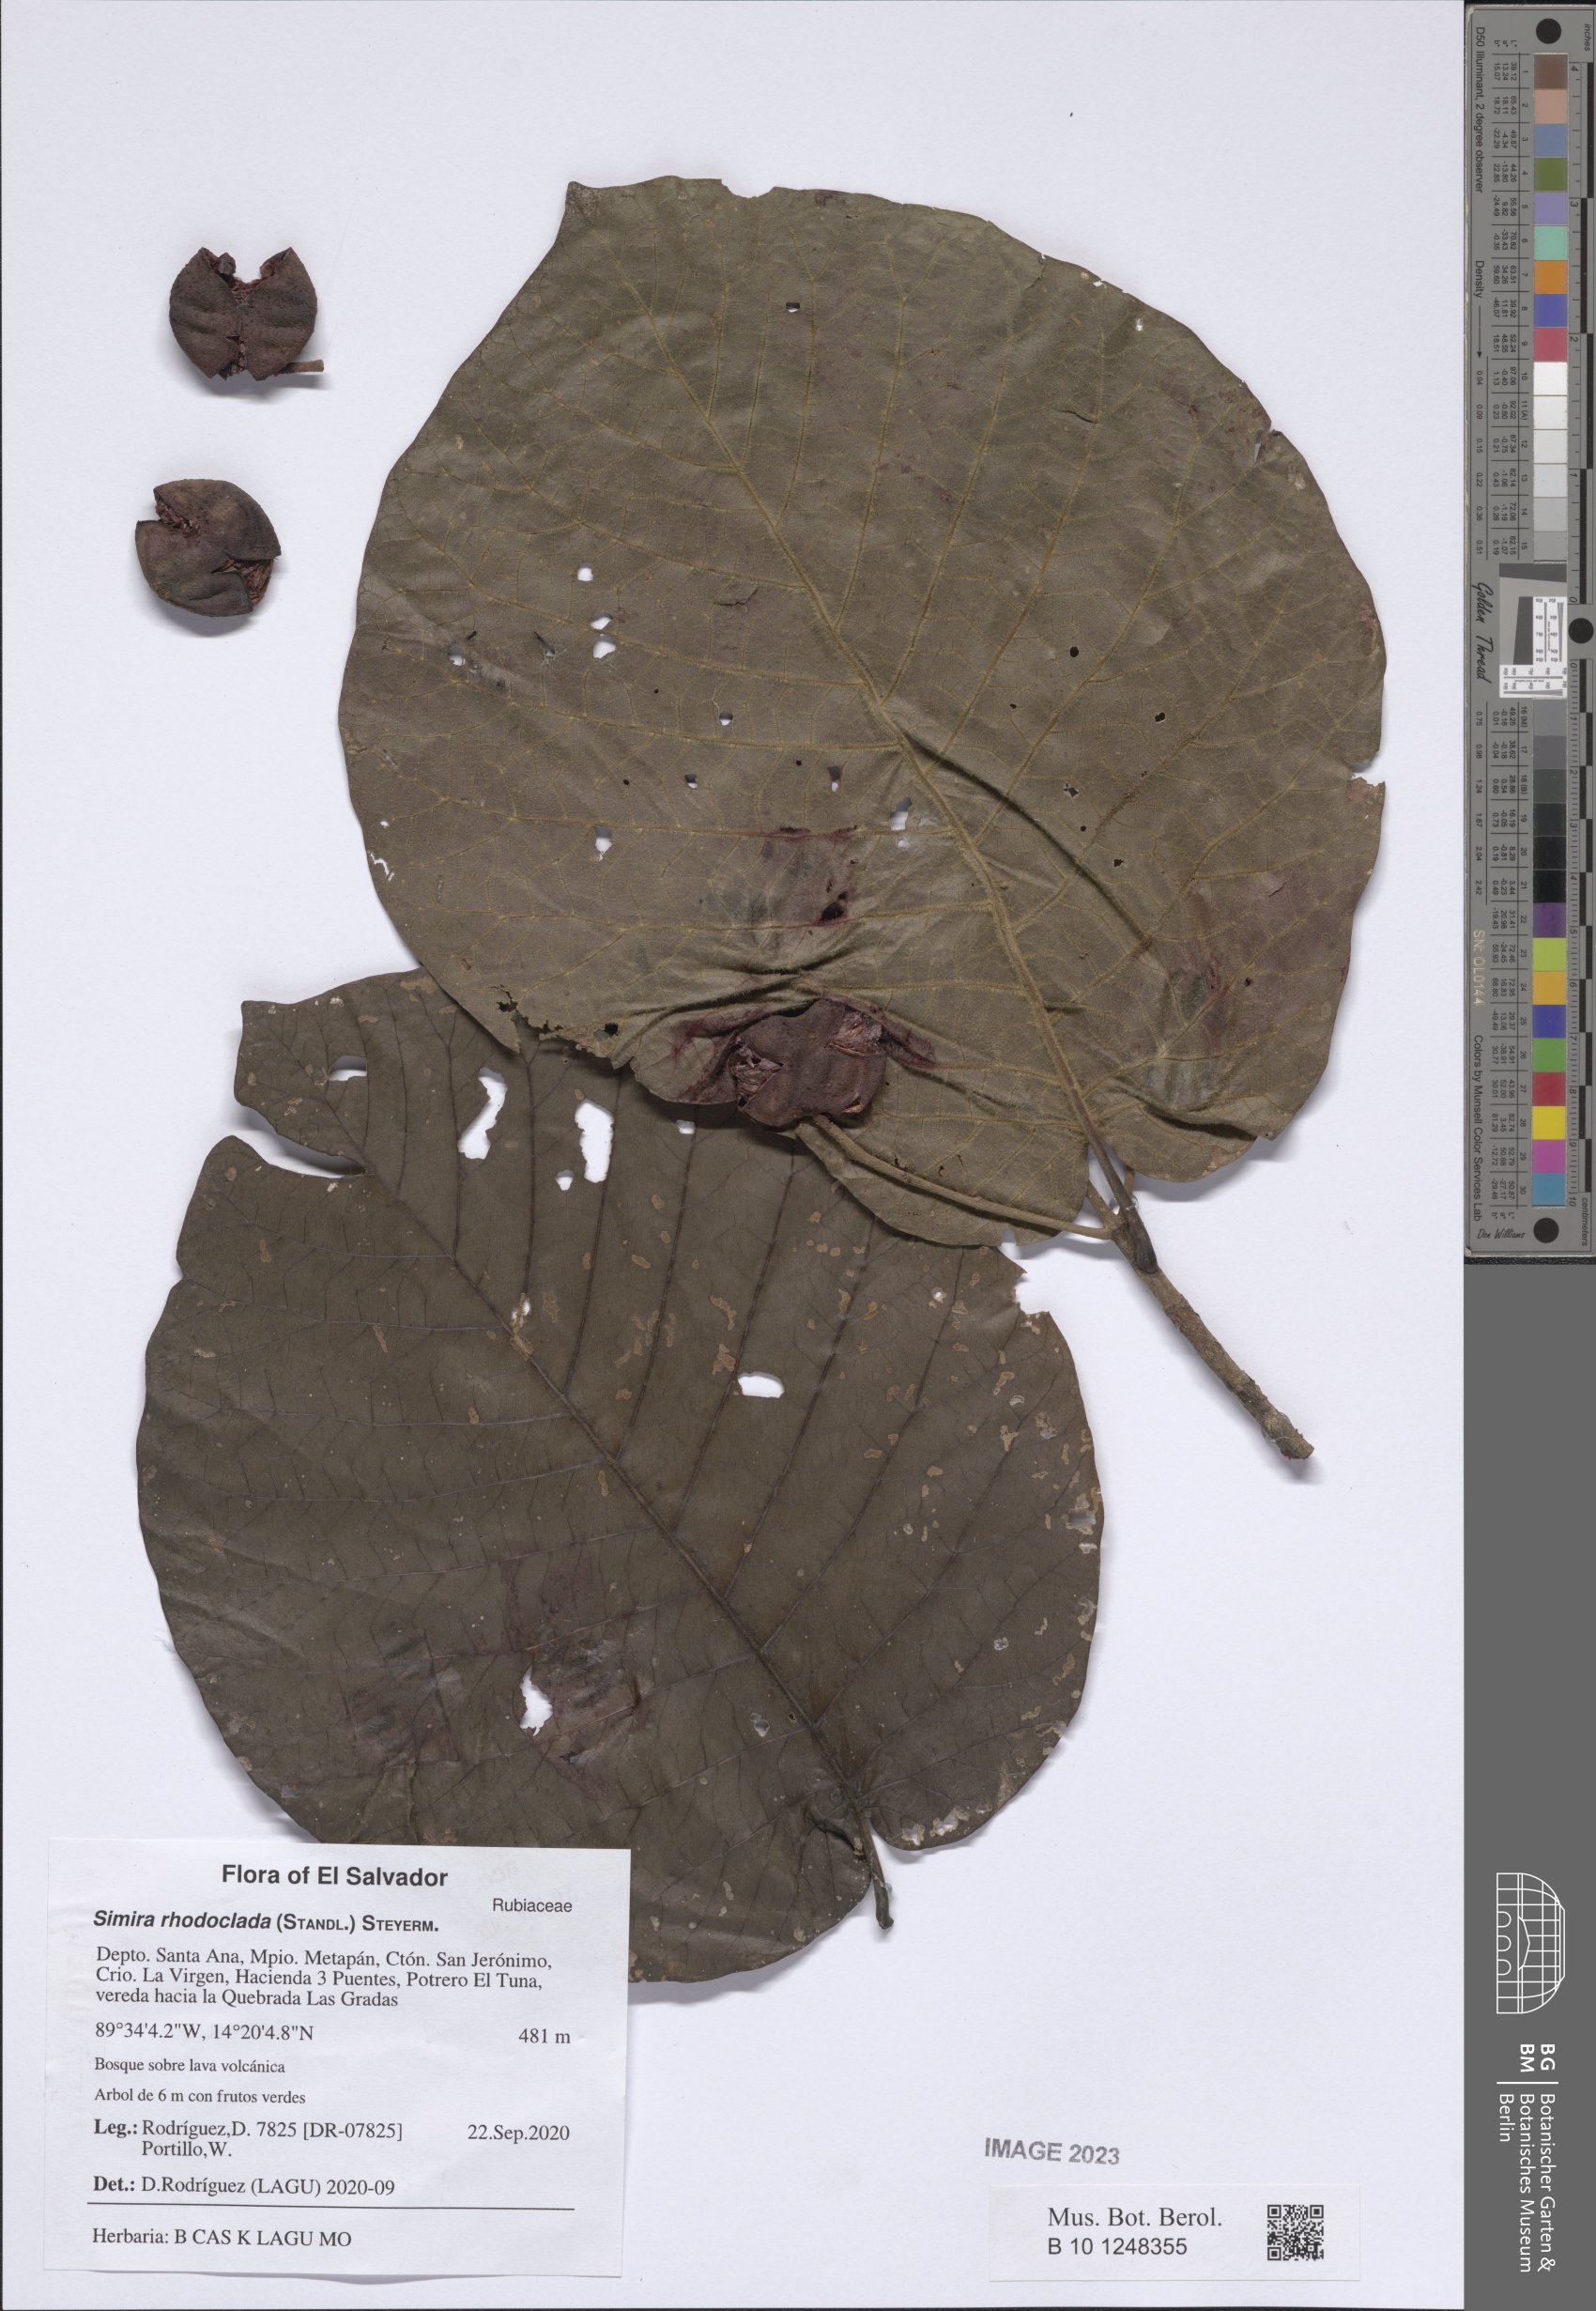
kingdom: Plantae
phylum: Tracheophyta
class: Magnoliopsida
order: Gentianales
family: Rubiaceae
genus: Simira
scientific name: Simira rhodoclada
